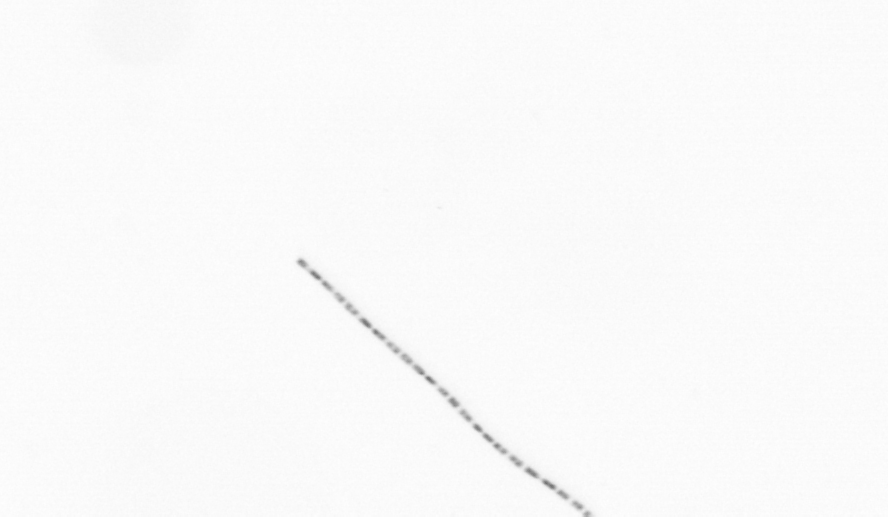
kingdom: Chromista
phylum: Ochrophyta
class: Bacillariophyceae
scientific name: Bacillariophyceae
